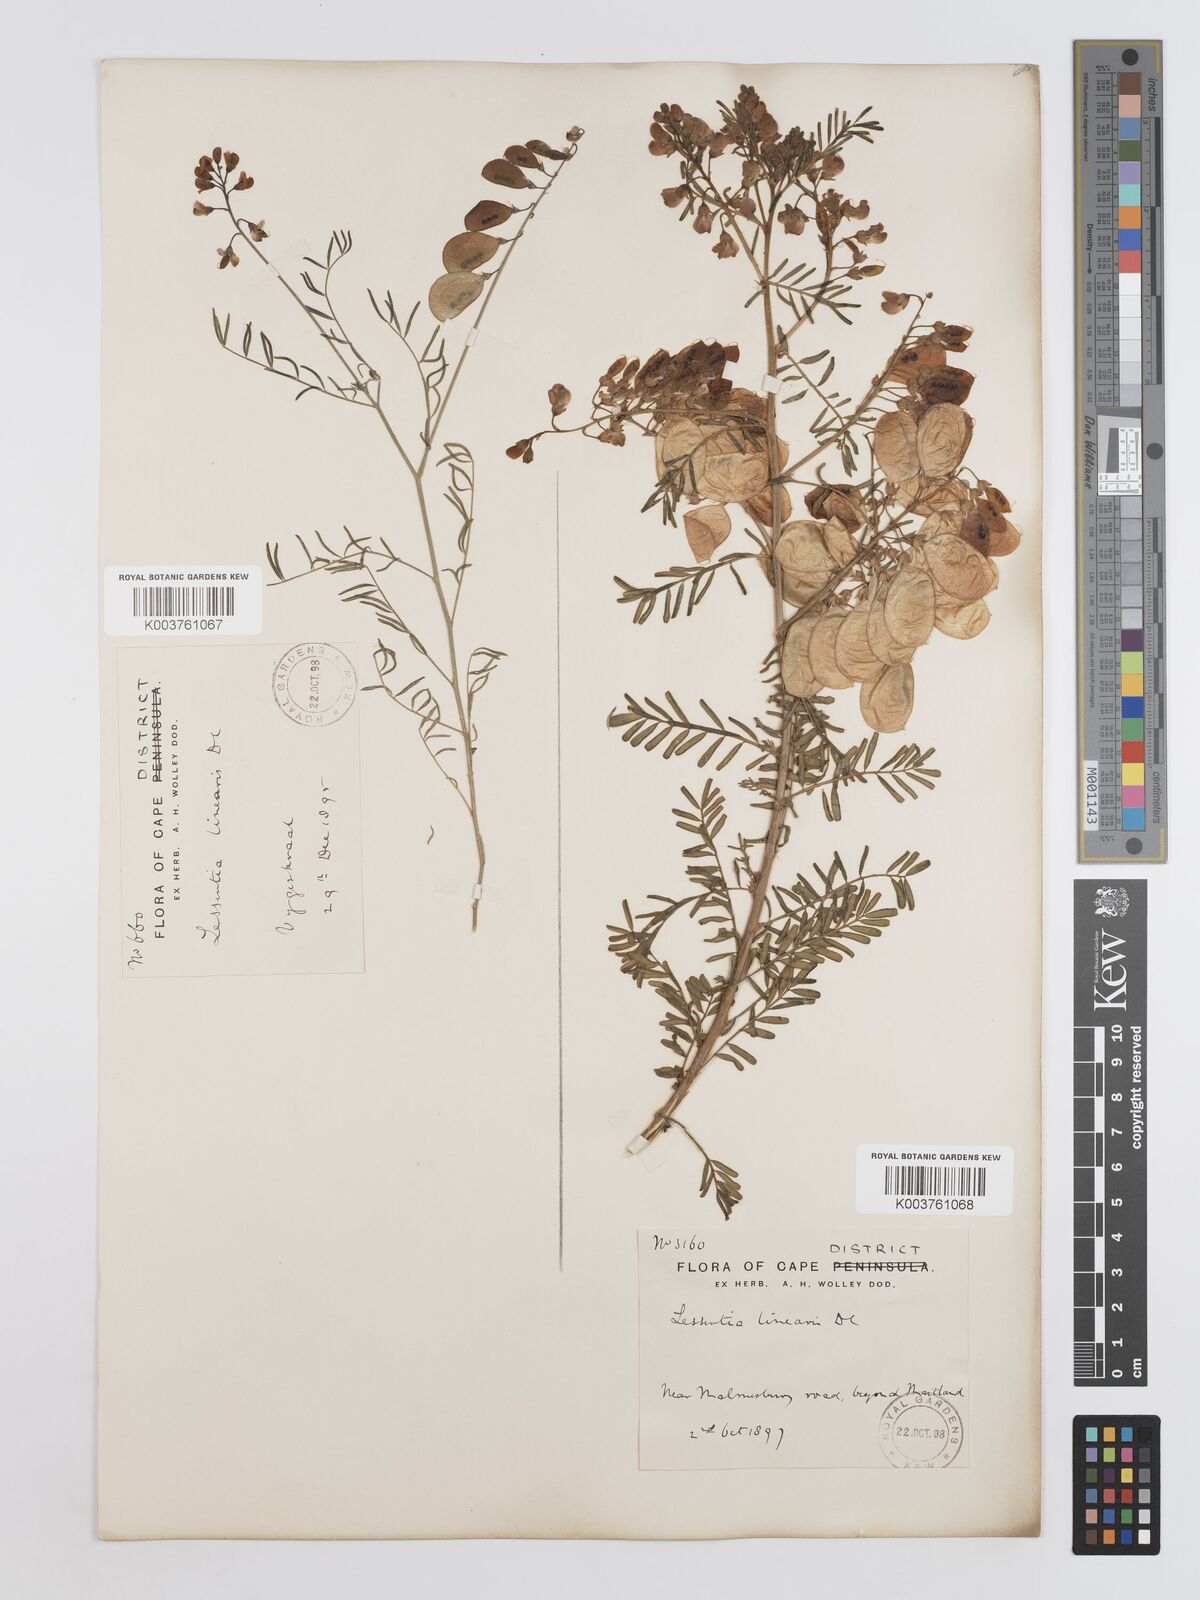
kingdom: Plantae
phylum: Tracheophyta
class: Magnoliopsida
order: Fabales
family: Fabaceae
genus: Lessertia
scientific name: Lessertia herbacea
